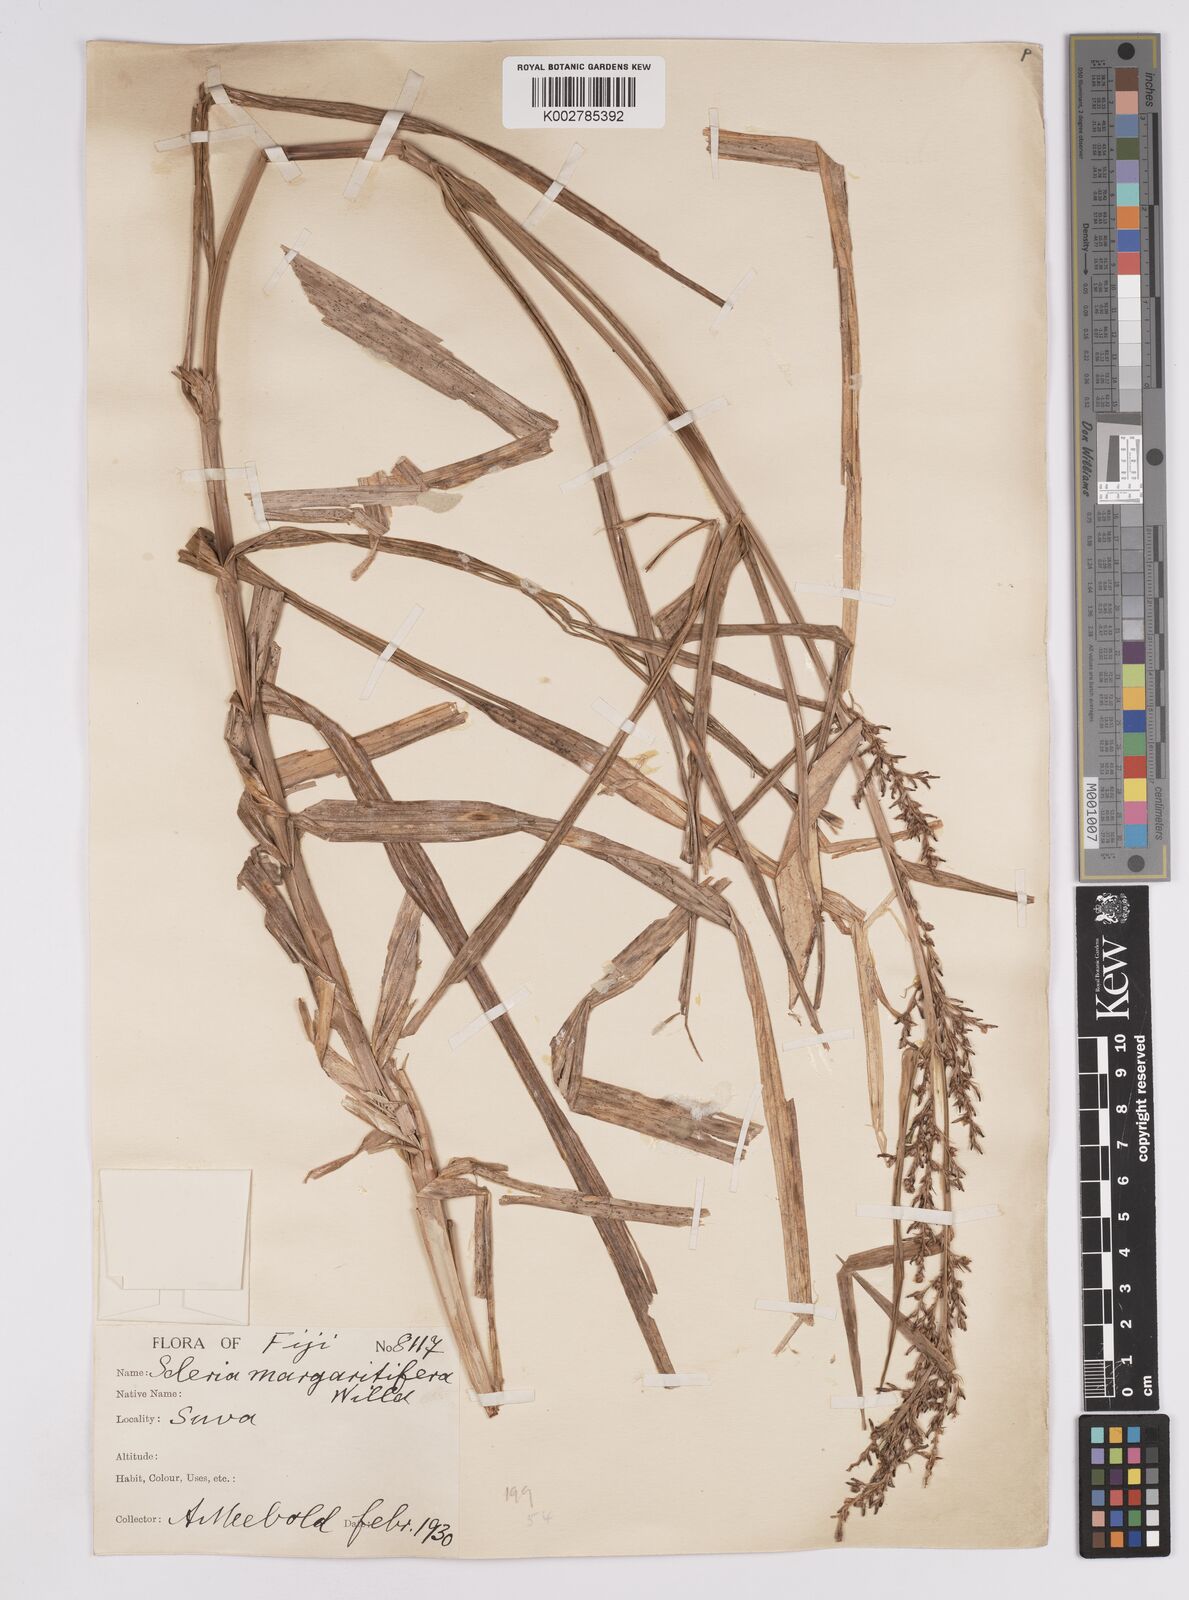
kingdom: Plantae
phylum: Tracheophyta
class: Liliopsida
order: Poales
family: Cyperaceae
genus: Scleria
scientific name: Scleria polycarpa
